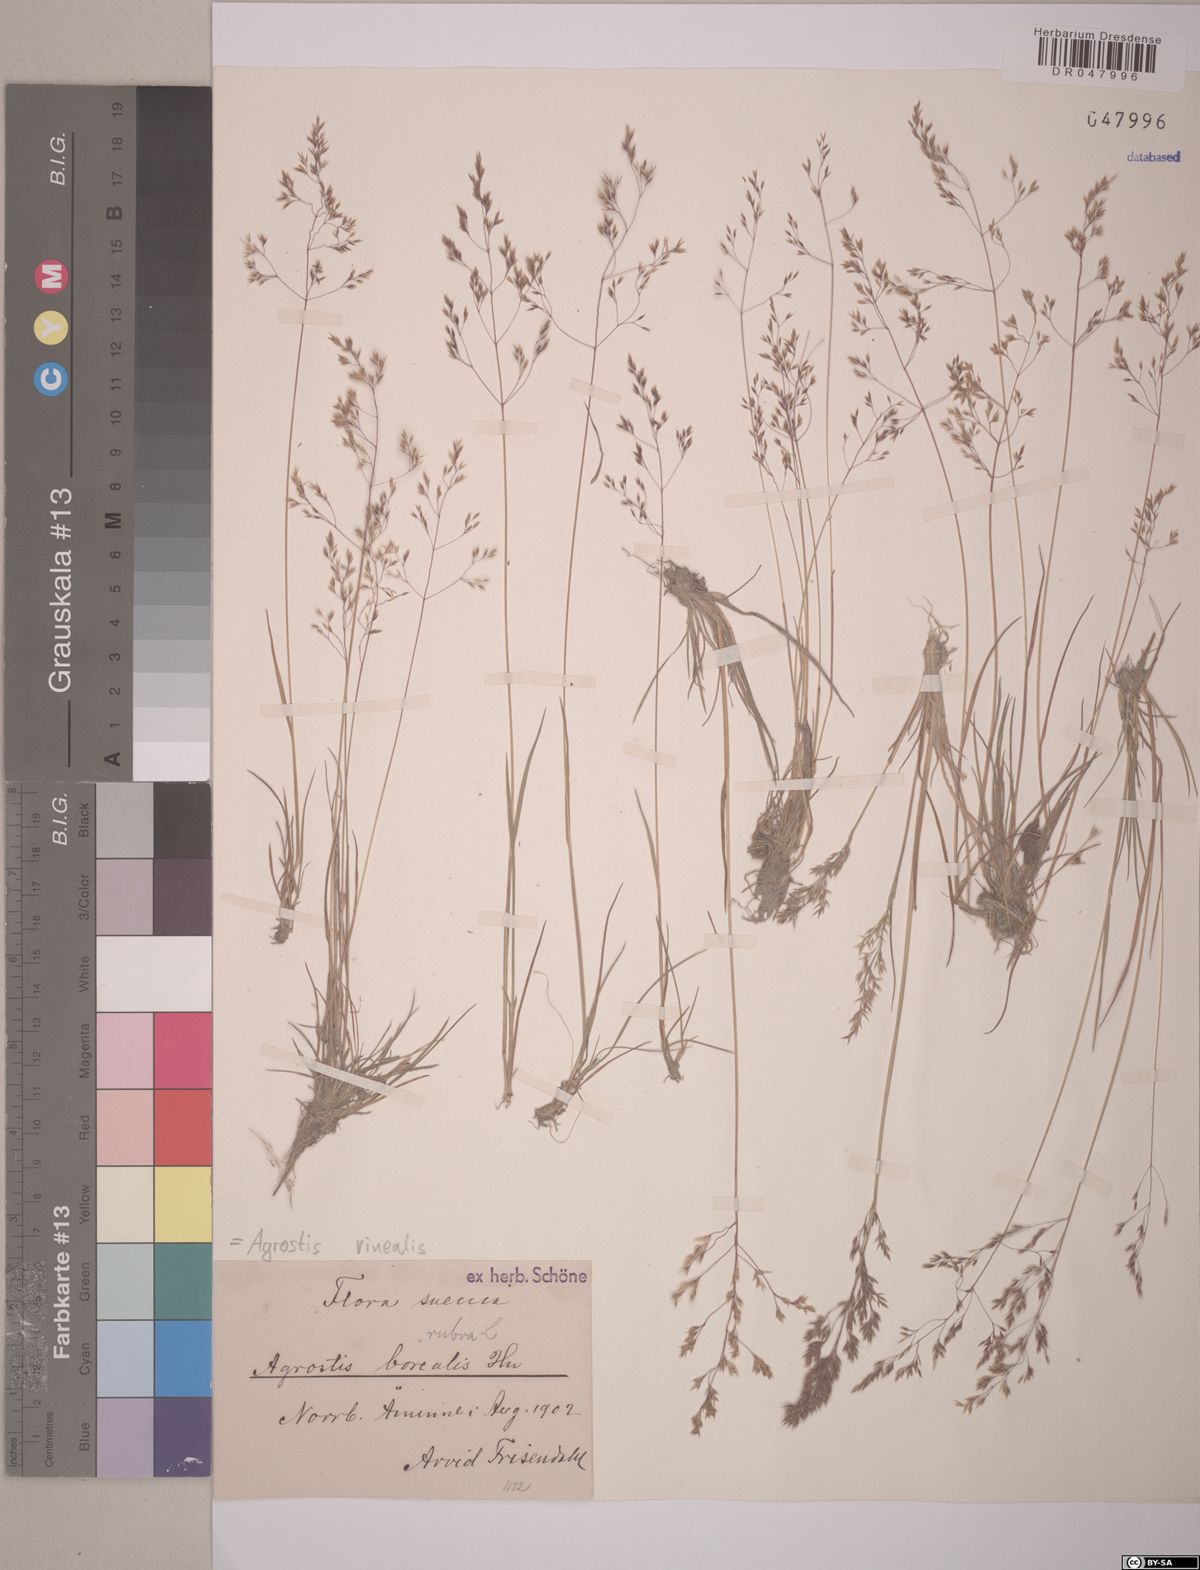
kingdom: Plantae
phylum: Tracheophyta
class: Liliopsida
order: Poales
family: Poaceae
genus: Agrostis
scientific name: Agrostis vinealis
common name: Brown bent
